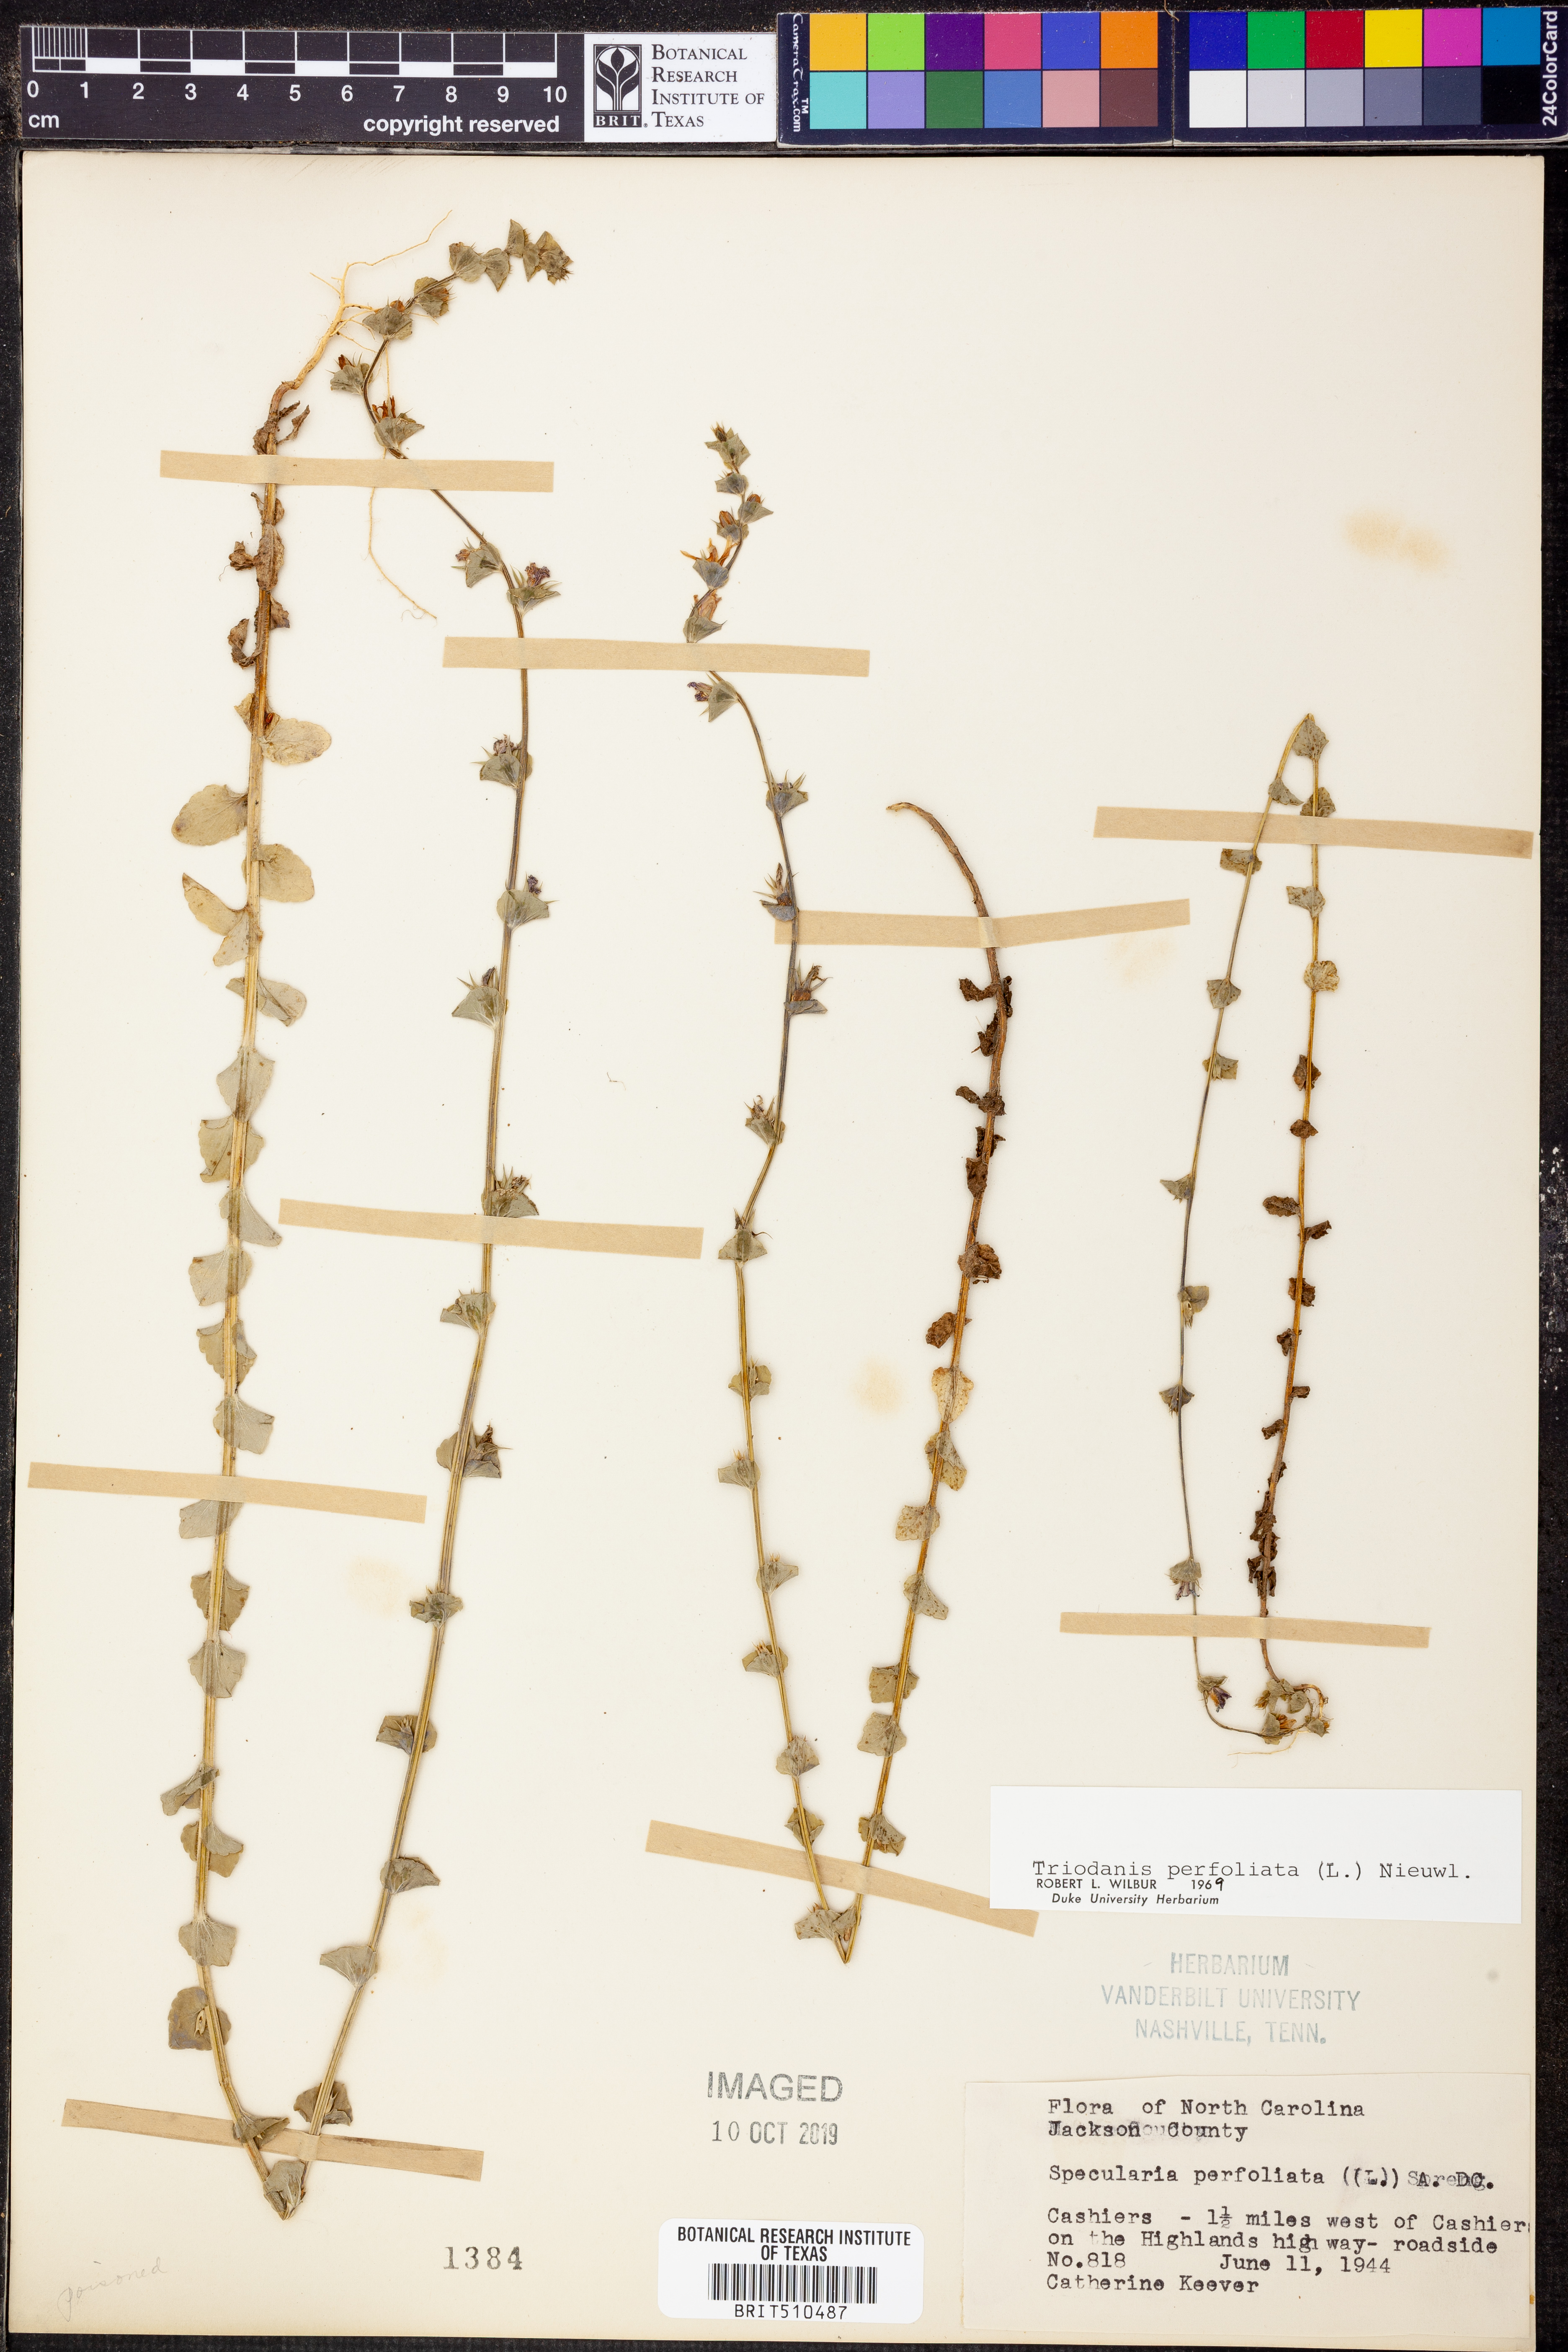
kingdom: Plantae
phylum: Tracheophyta
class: Magnoliopsida
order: Asterales
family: Campanulaceae
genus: Triodanis
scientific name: Triodanis perfoliata
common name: Clasping venus' looking-glass
